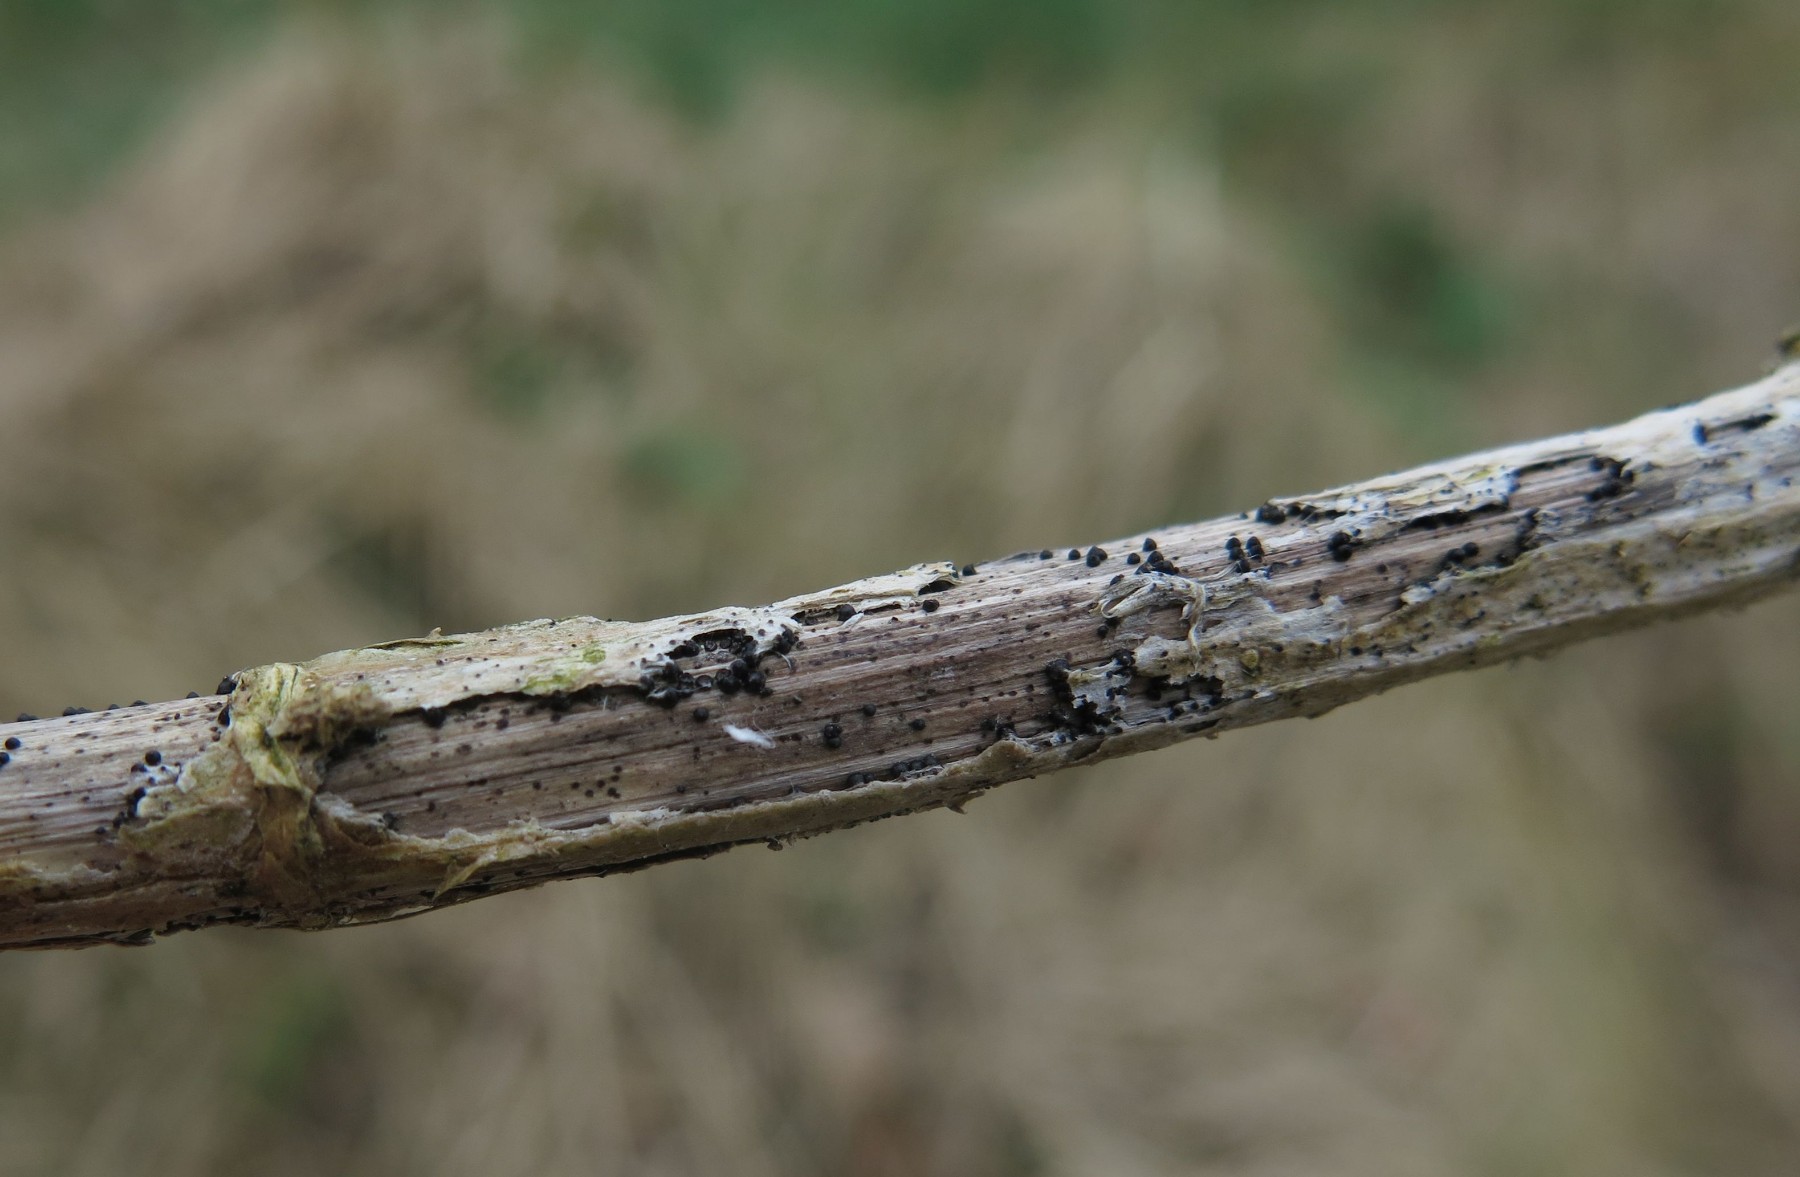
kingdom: Fungi
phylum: Ascomycota
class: Dothideomycetes
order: Pleosporales
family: Leptosphaeriaceae
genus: Leptosphaeria
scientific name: Leptosphaeria acuta
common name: spids kulkegle
